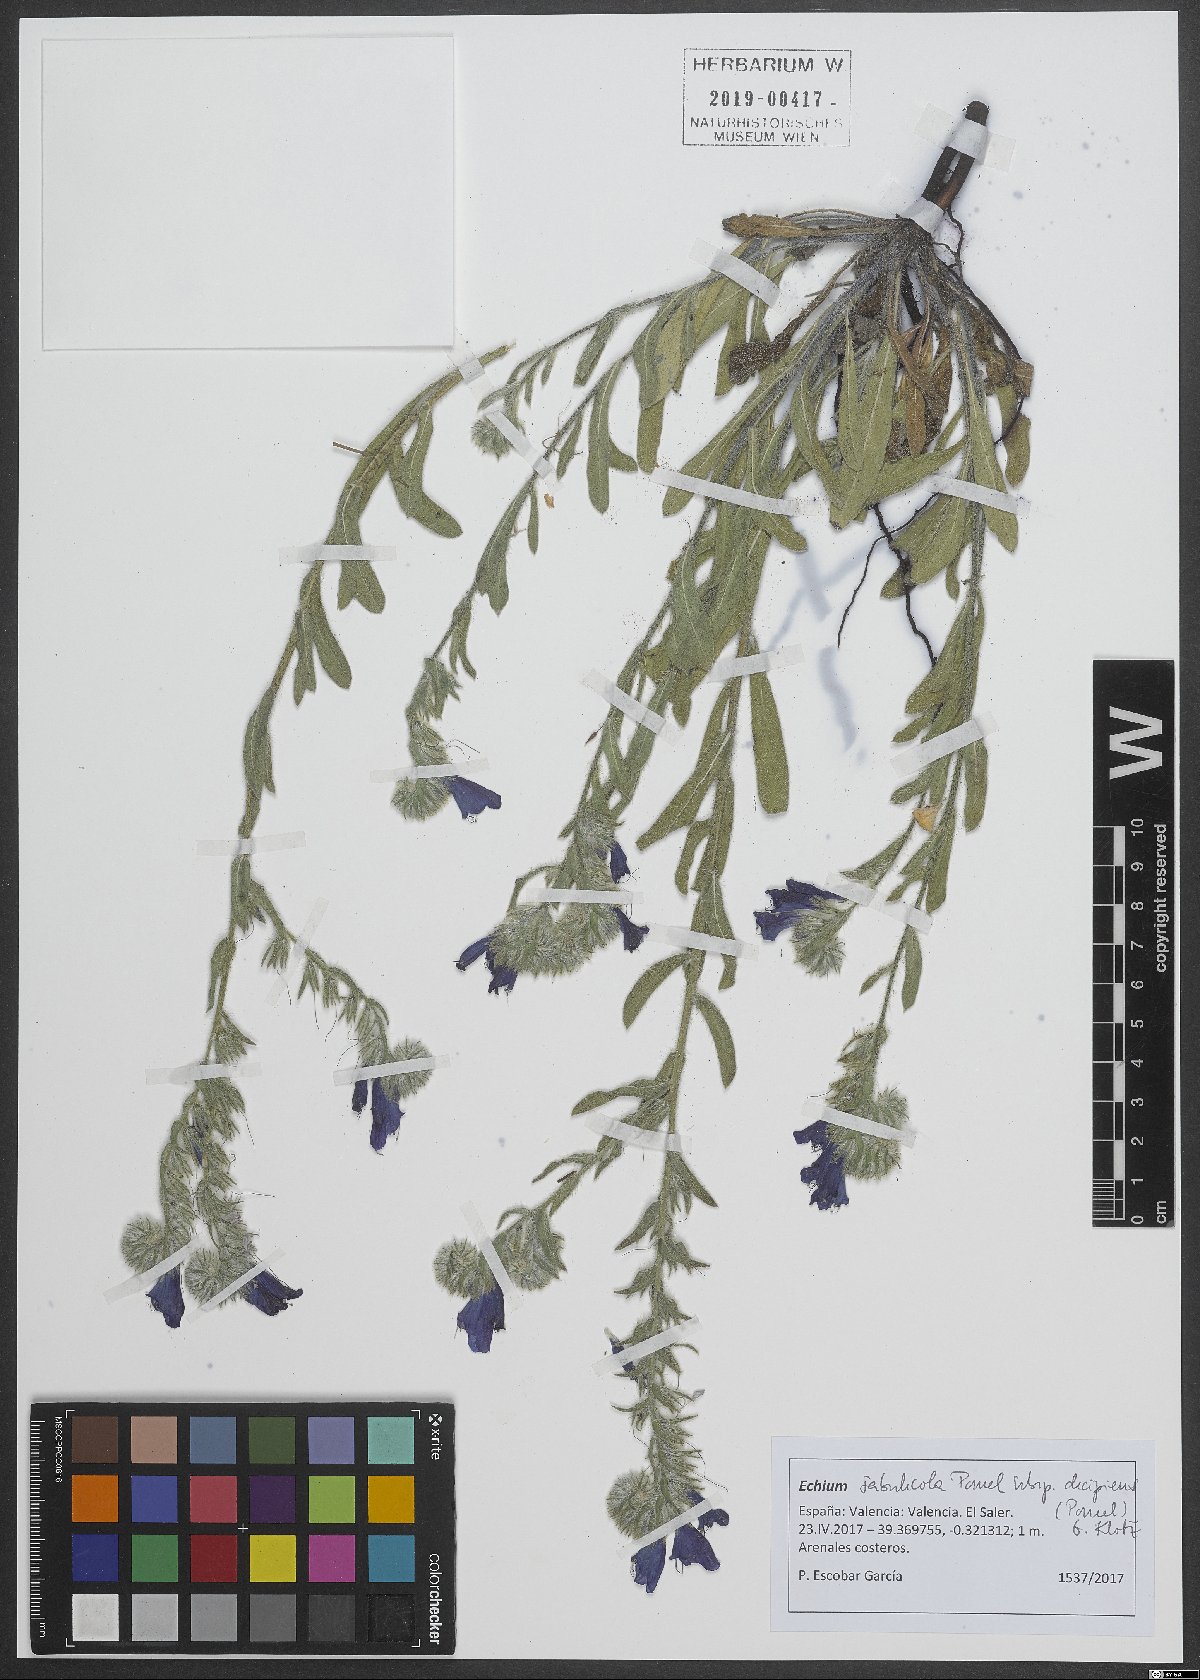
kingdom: Plantae
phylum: Tracheophyta
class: Magnoliopsida
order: Boraginales
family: Boraginaceae
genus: Echium
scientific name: Echium sabulicola
